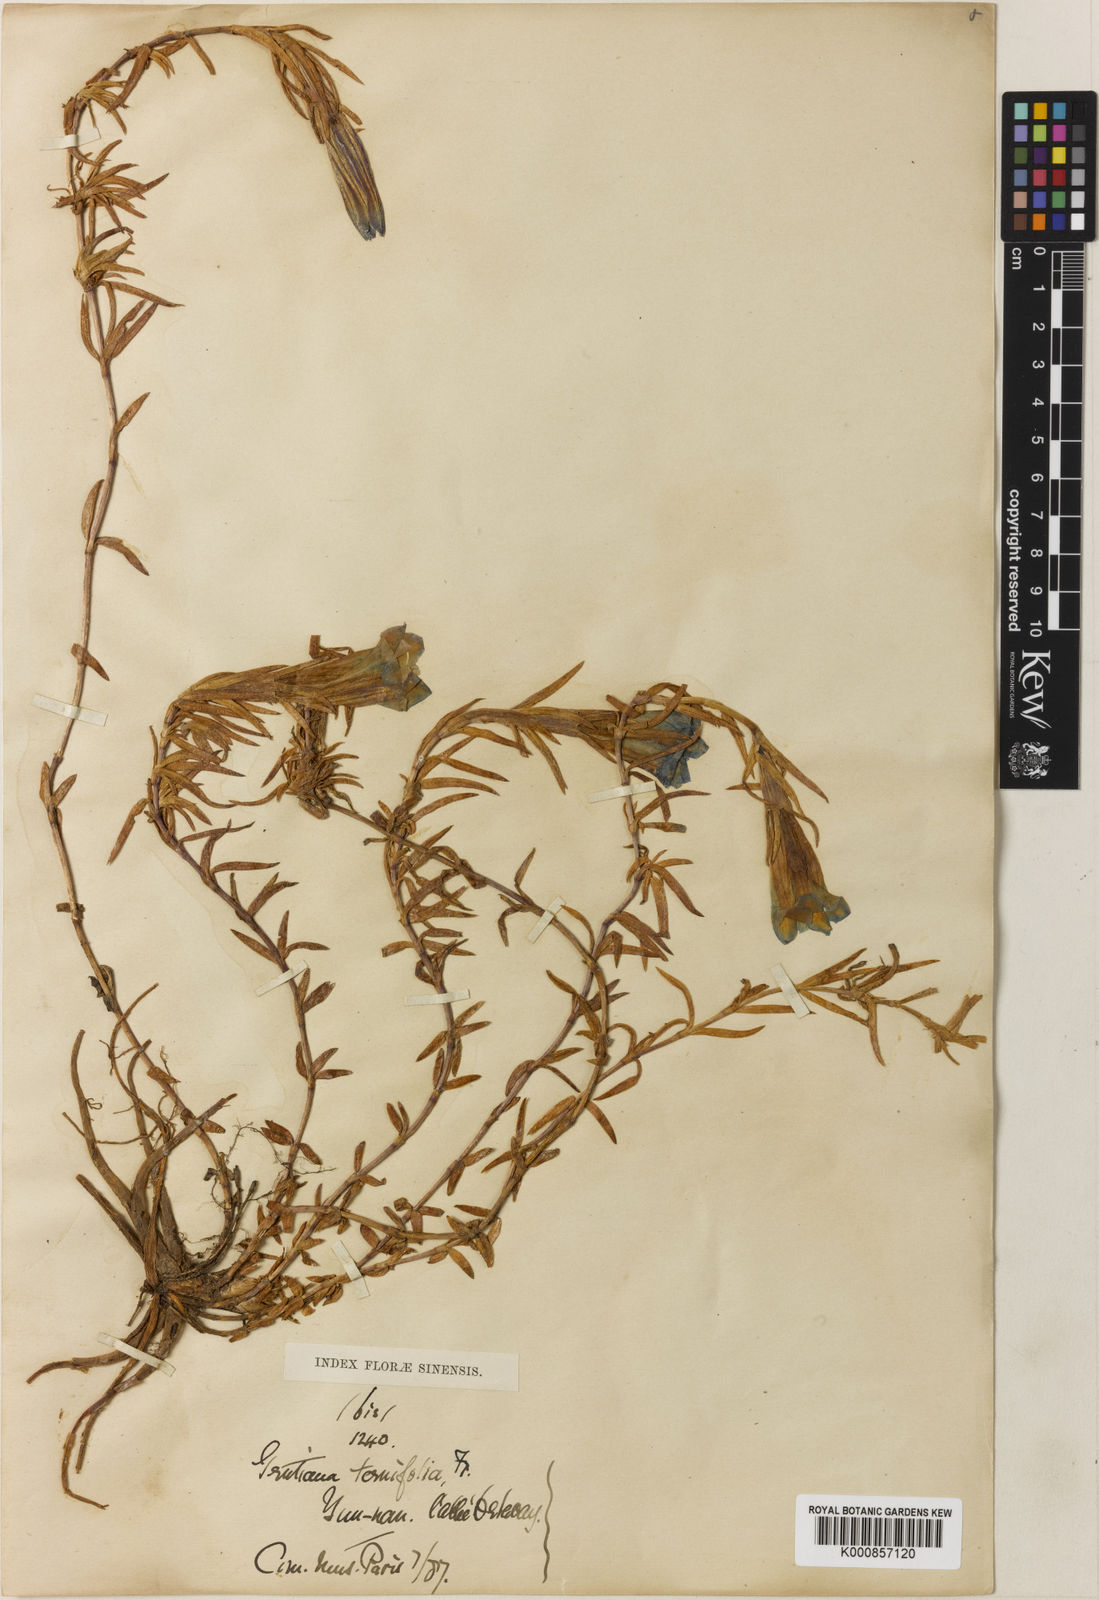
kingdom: Plantae
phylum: Tracheophyta
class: Magnoliopsida
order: Gentianales
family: Gentianaceae
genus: Gentiana
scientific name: Gentiana ternifolia
